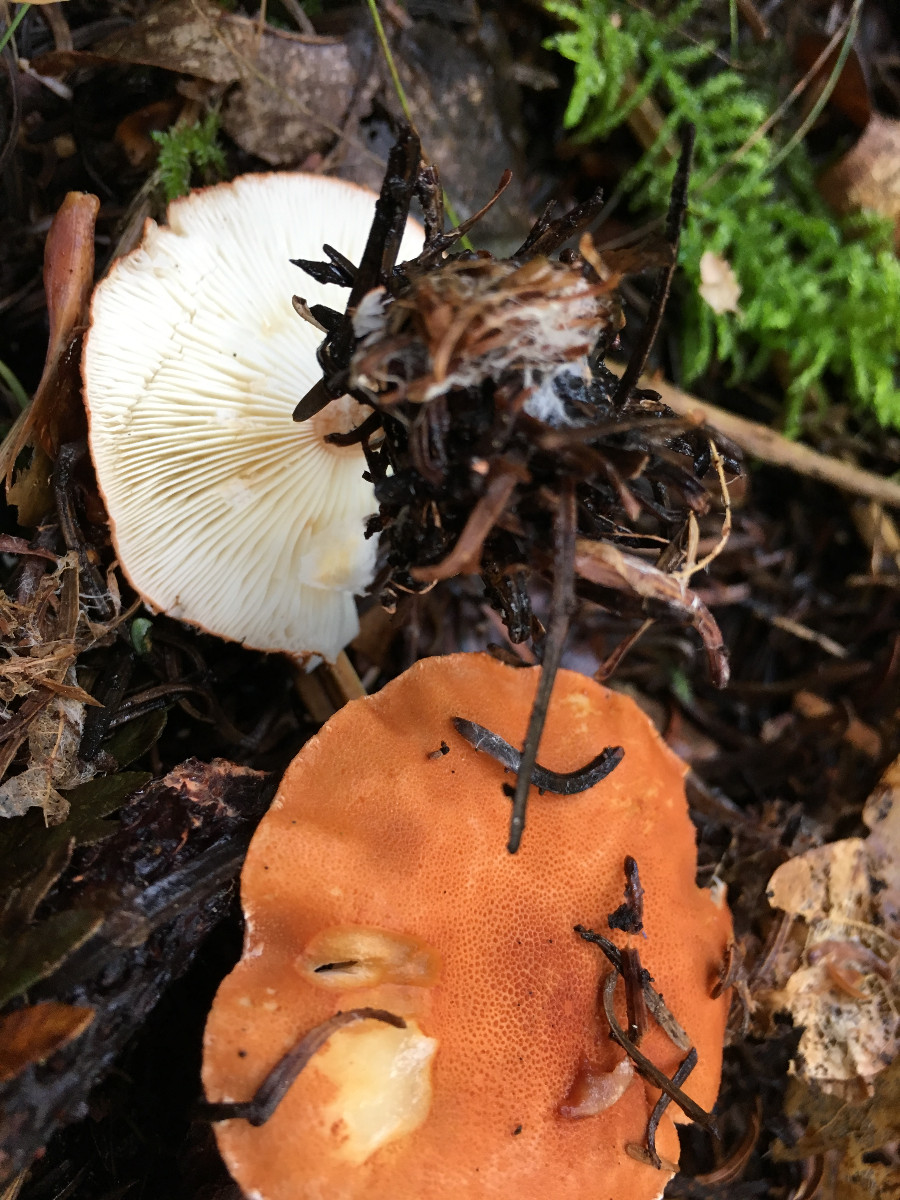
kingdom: Fungi
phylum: Basidiomycota
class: Agaricomycetes
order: Agaricales
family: Agaricaceae
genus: Cystodermella
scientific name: Cystodermella cinnabarina
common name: cinnober-grynhat
